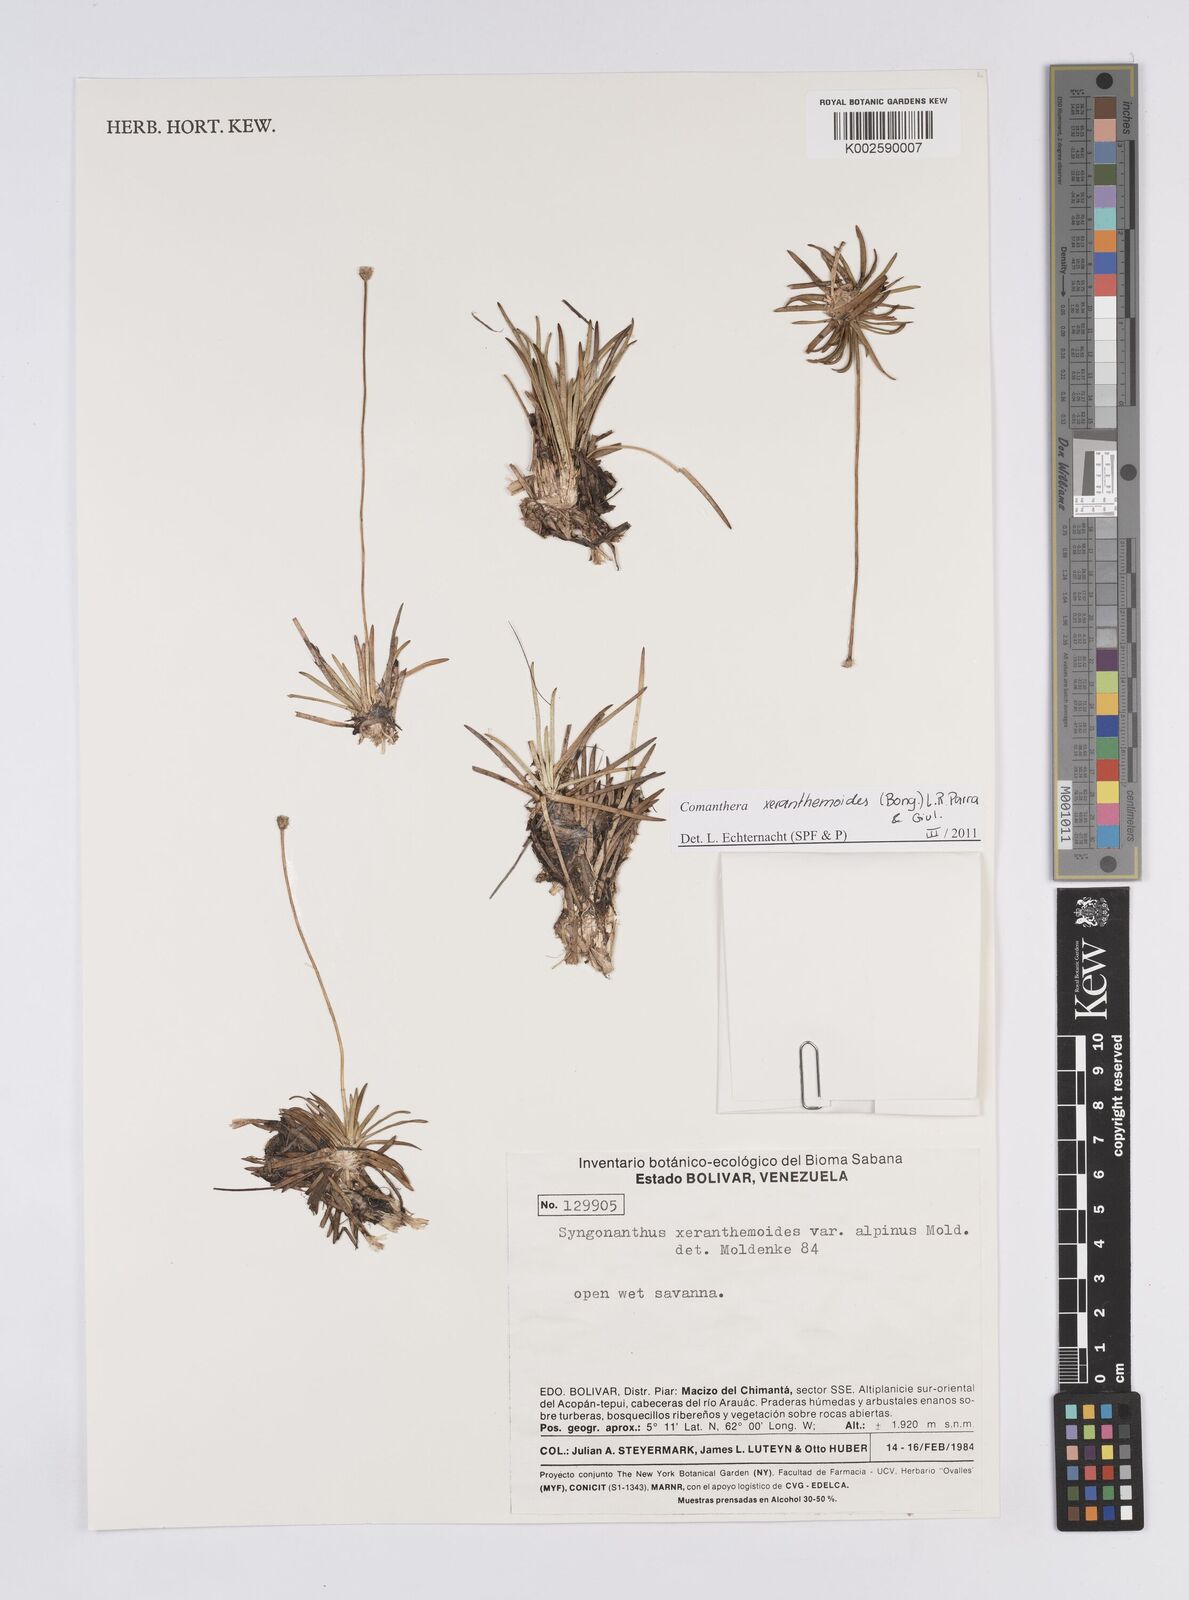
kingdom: Plantae
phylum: Tracheophyta
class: Liliopsida
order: Poales
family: Eriocaulaceae
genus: Comanthera
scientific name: Comanthera xeranthemoides
